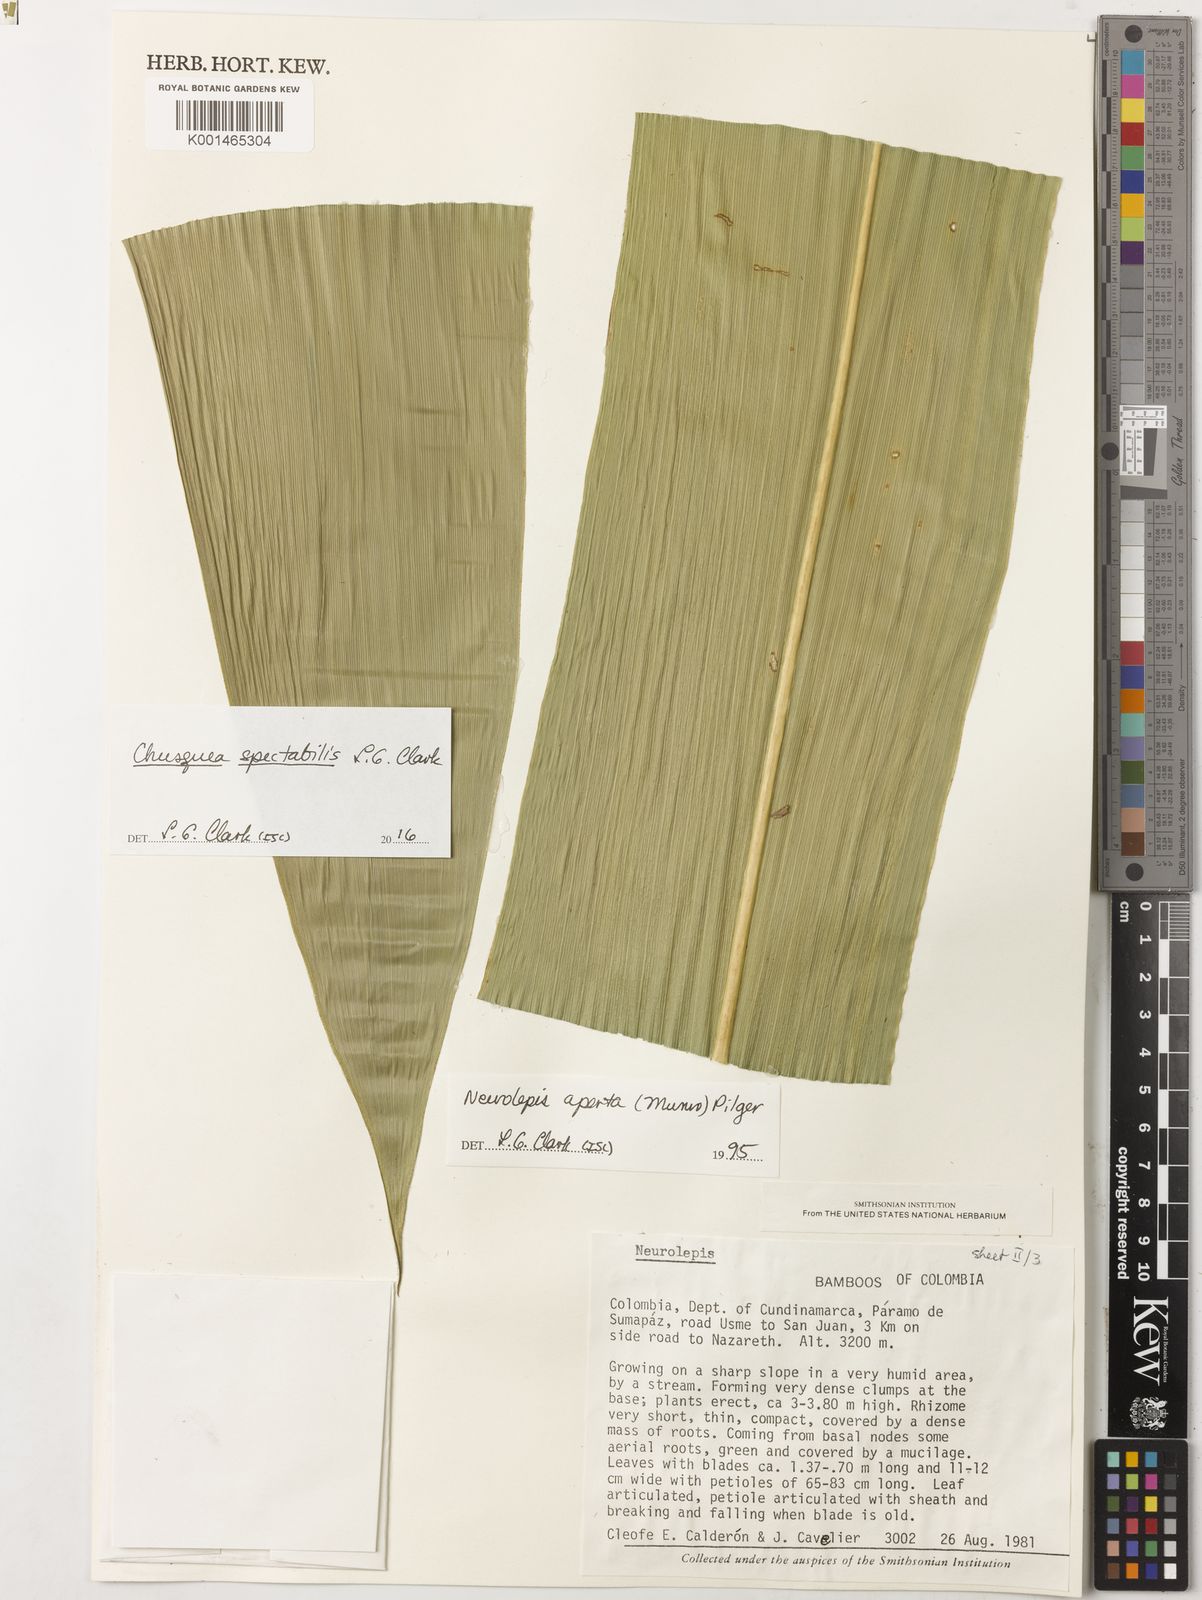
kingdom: Plantae
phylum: Tracheophyta
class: Liliopsida
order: Poales
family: Poaceae
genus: Chusquea
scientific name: Chusquea spectabilis
